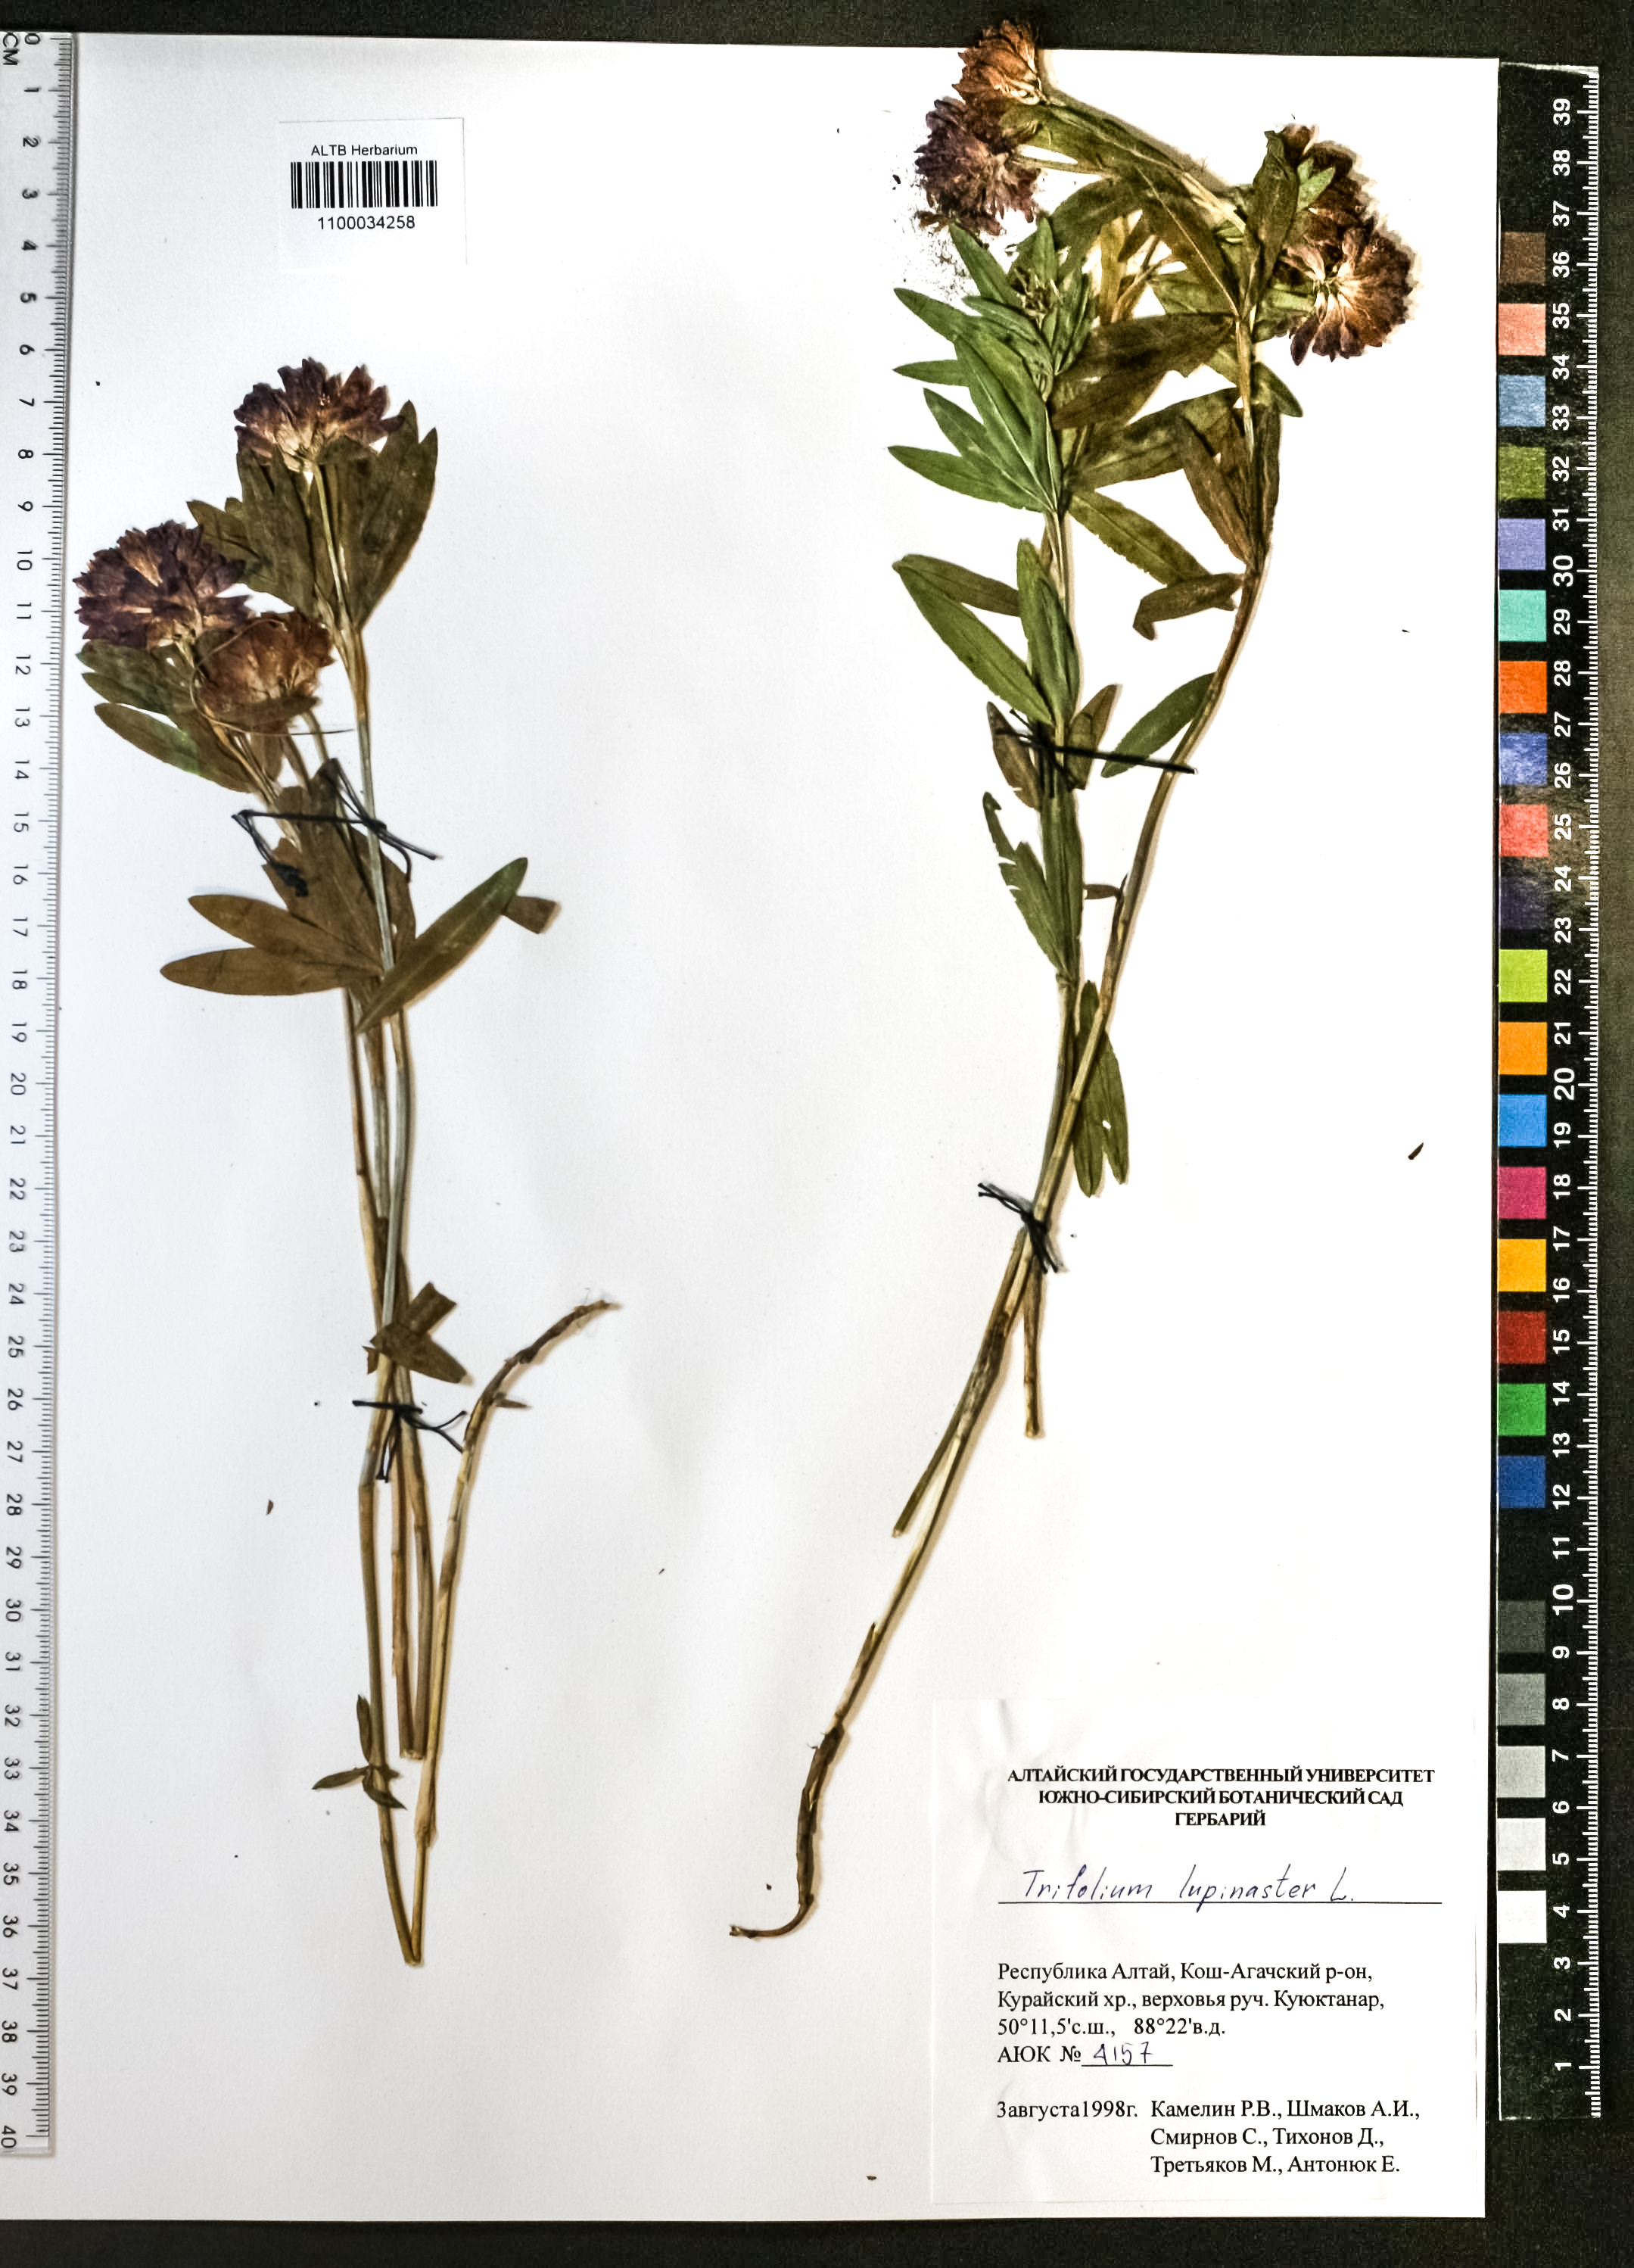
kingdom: Plantae
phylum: Tracheophyta
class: Magnoliopsida
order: Fabales
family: Fabaceae
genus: Trifolium
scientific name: Trifolium lupinaster
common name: Lupine clover
